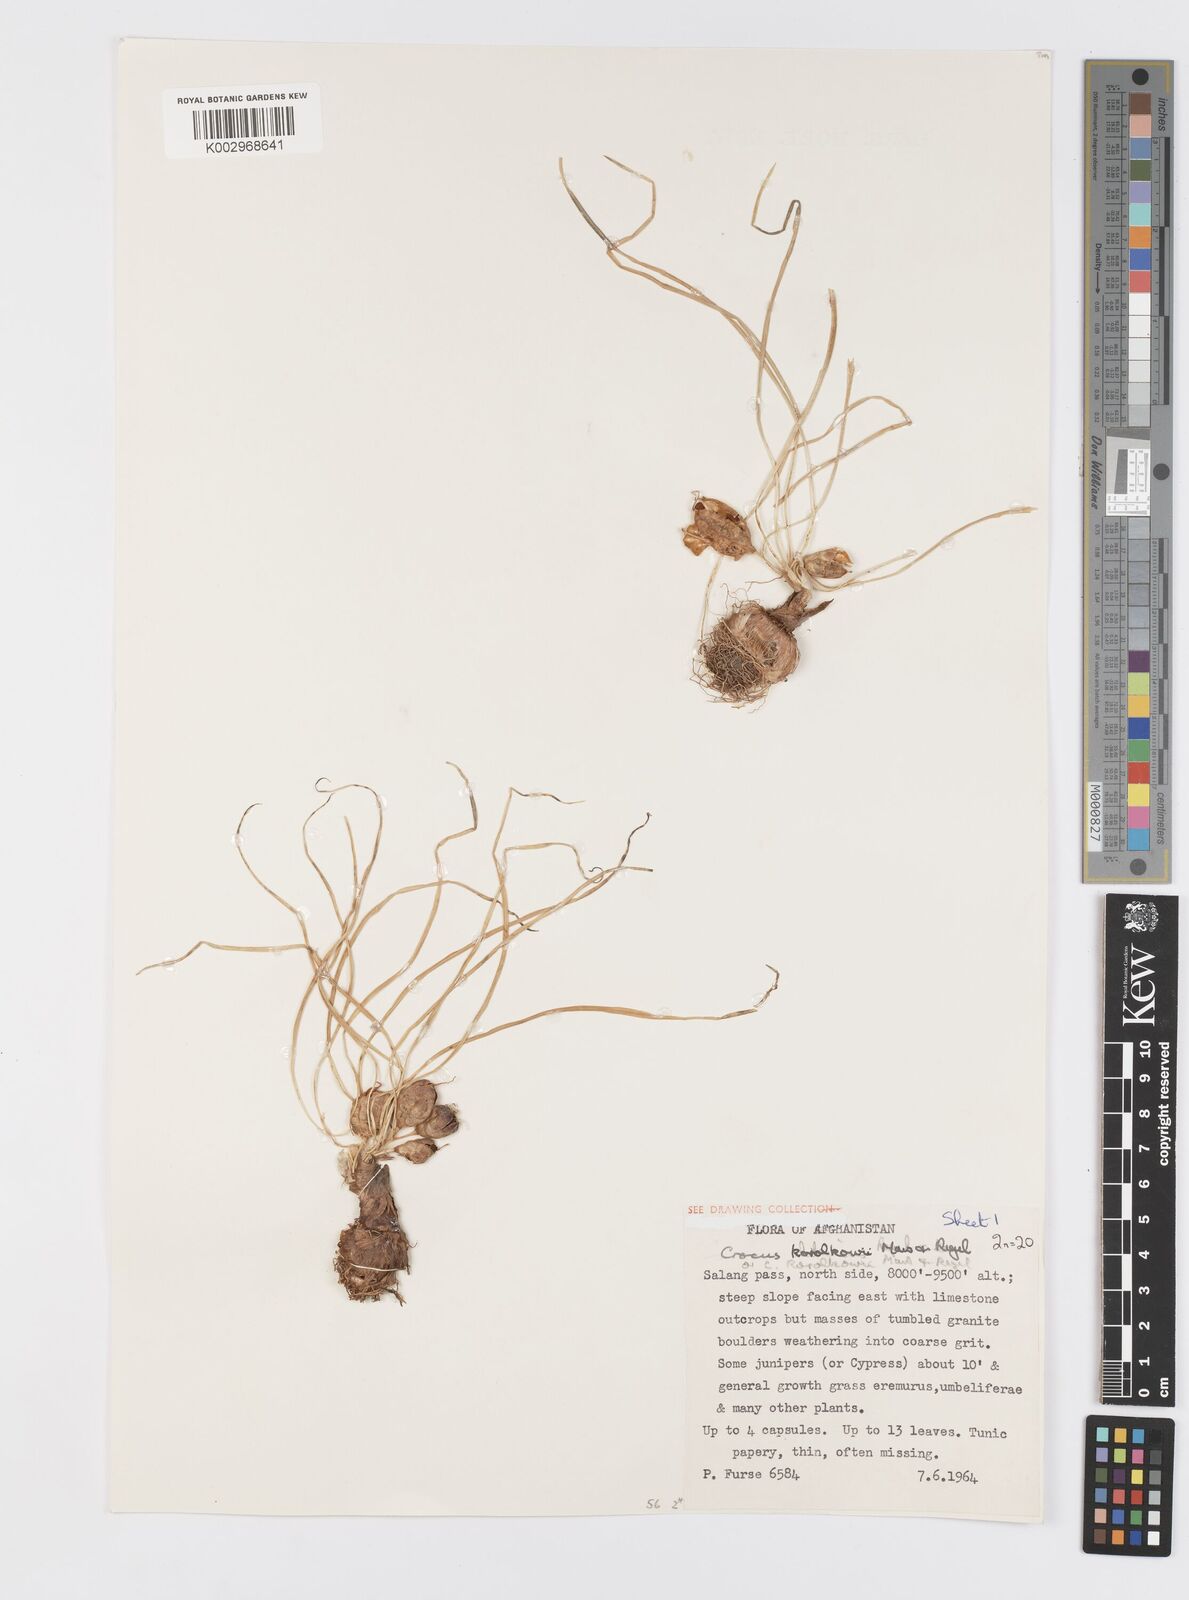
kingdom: Plantae
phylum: Tracheophyta
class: Liliopsida
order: Asparagales
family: Iridaceae
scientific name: Iridaceae
